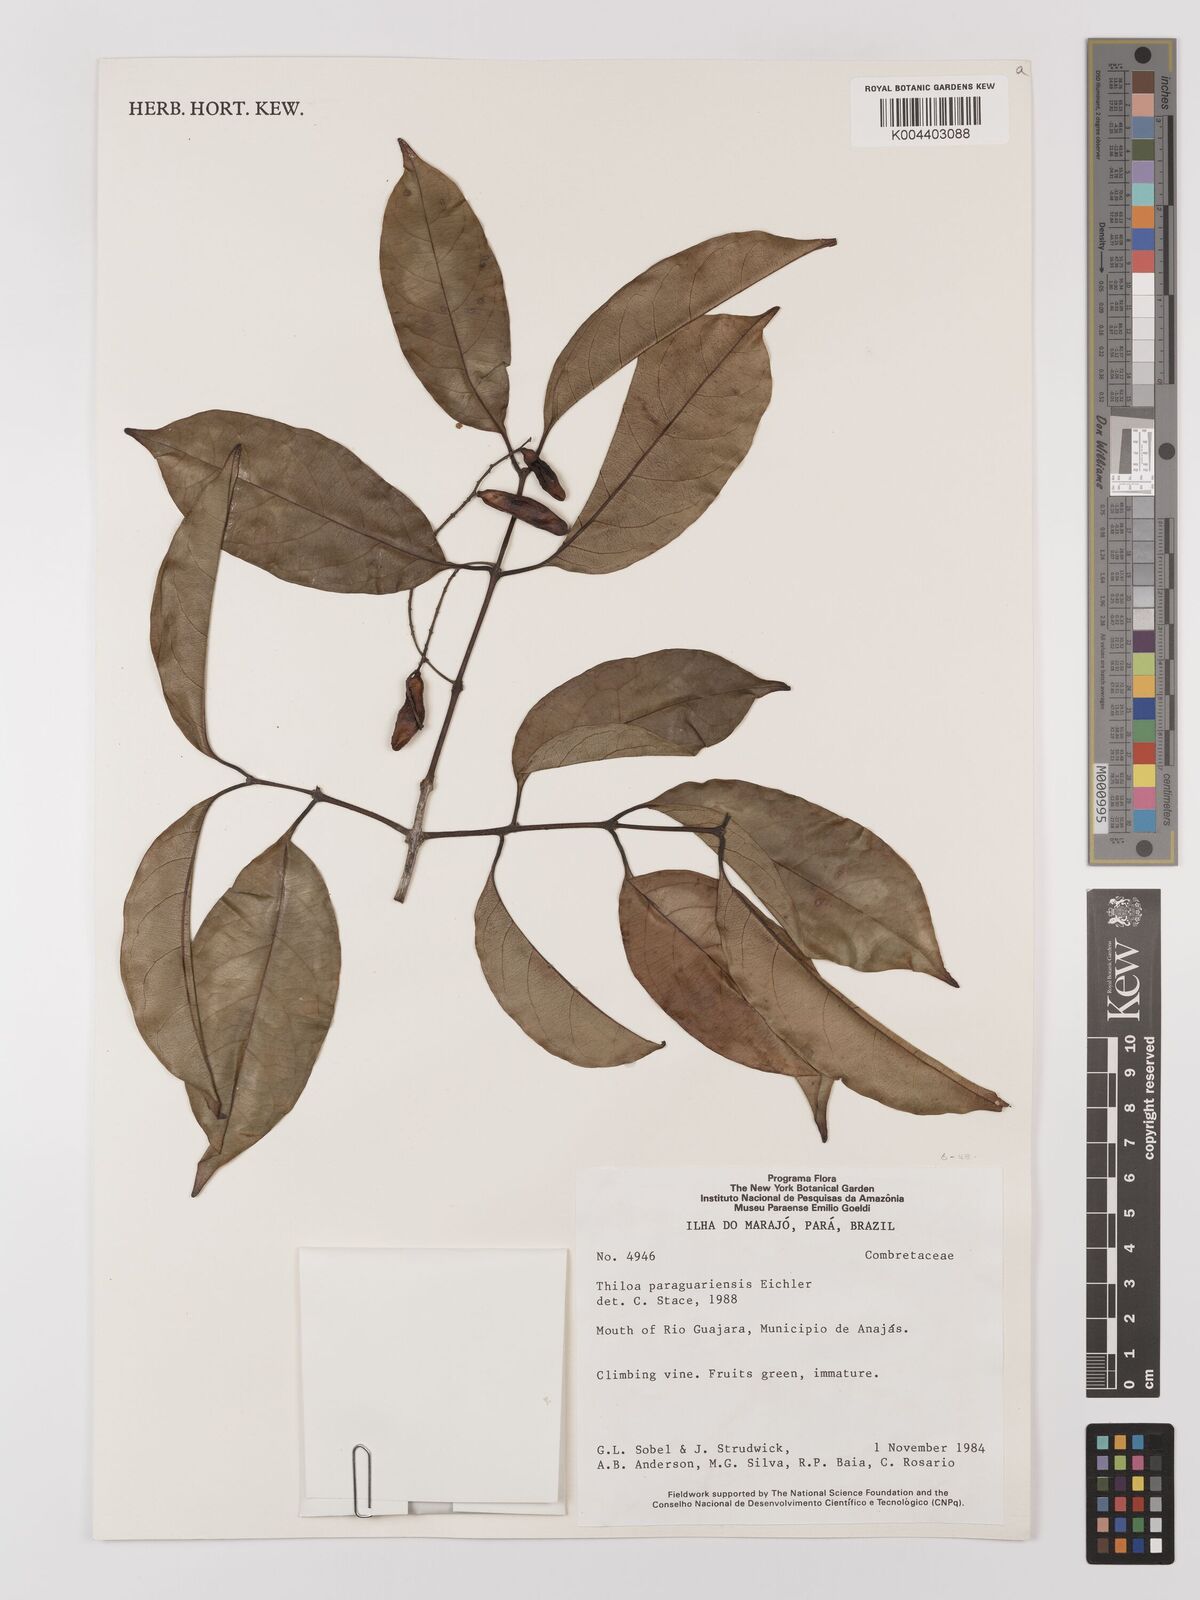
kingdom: Plantae
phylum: Tracheophyta
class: Magnoliopsida
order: Myrtales
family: Combretaceae
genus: Combretum
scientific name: Combretum paraguariense
